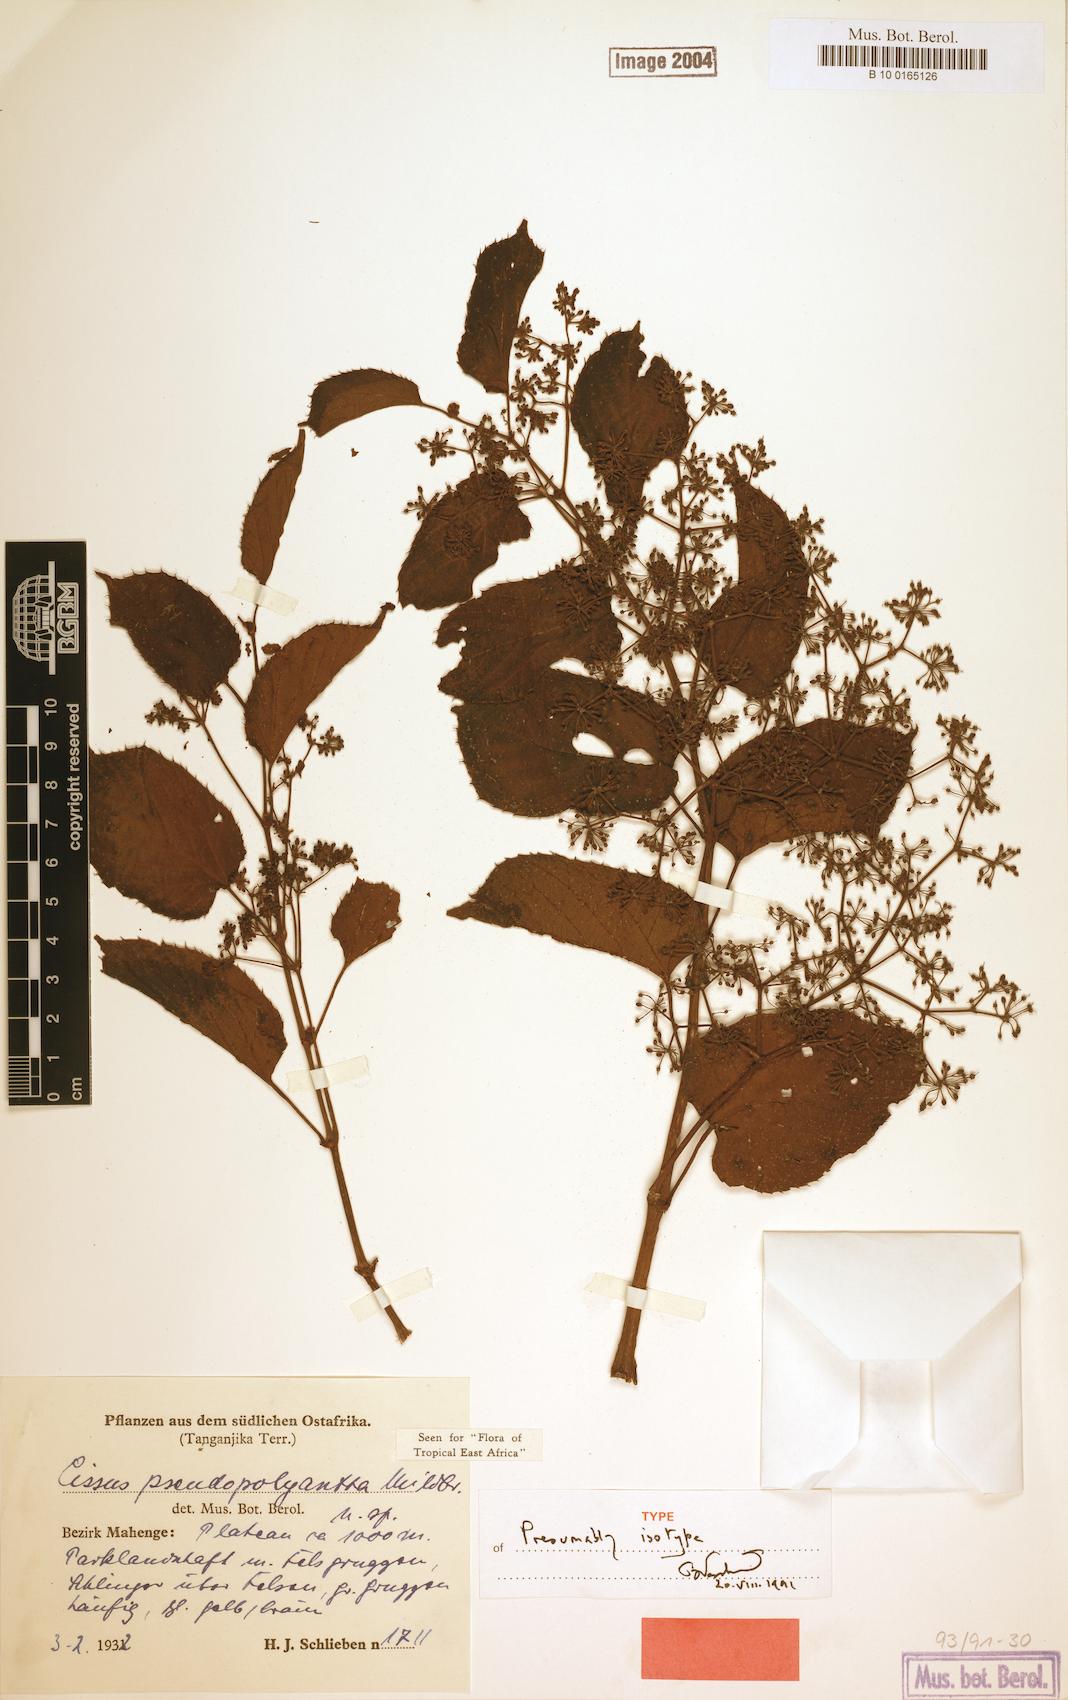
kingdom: Plantae
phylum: Tracheophyta
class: Magnoliopsida
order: Vitales
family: Vitaceae
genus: Cissus
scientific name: Cissus pseudopolyantha
